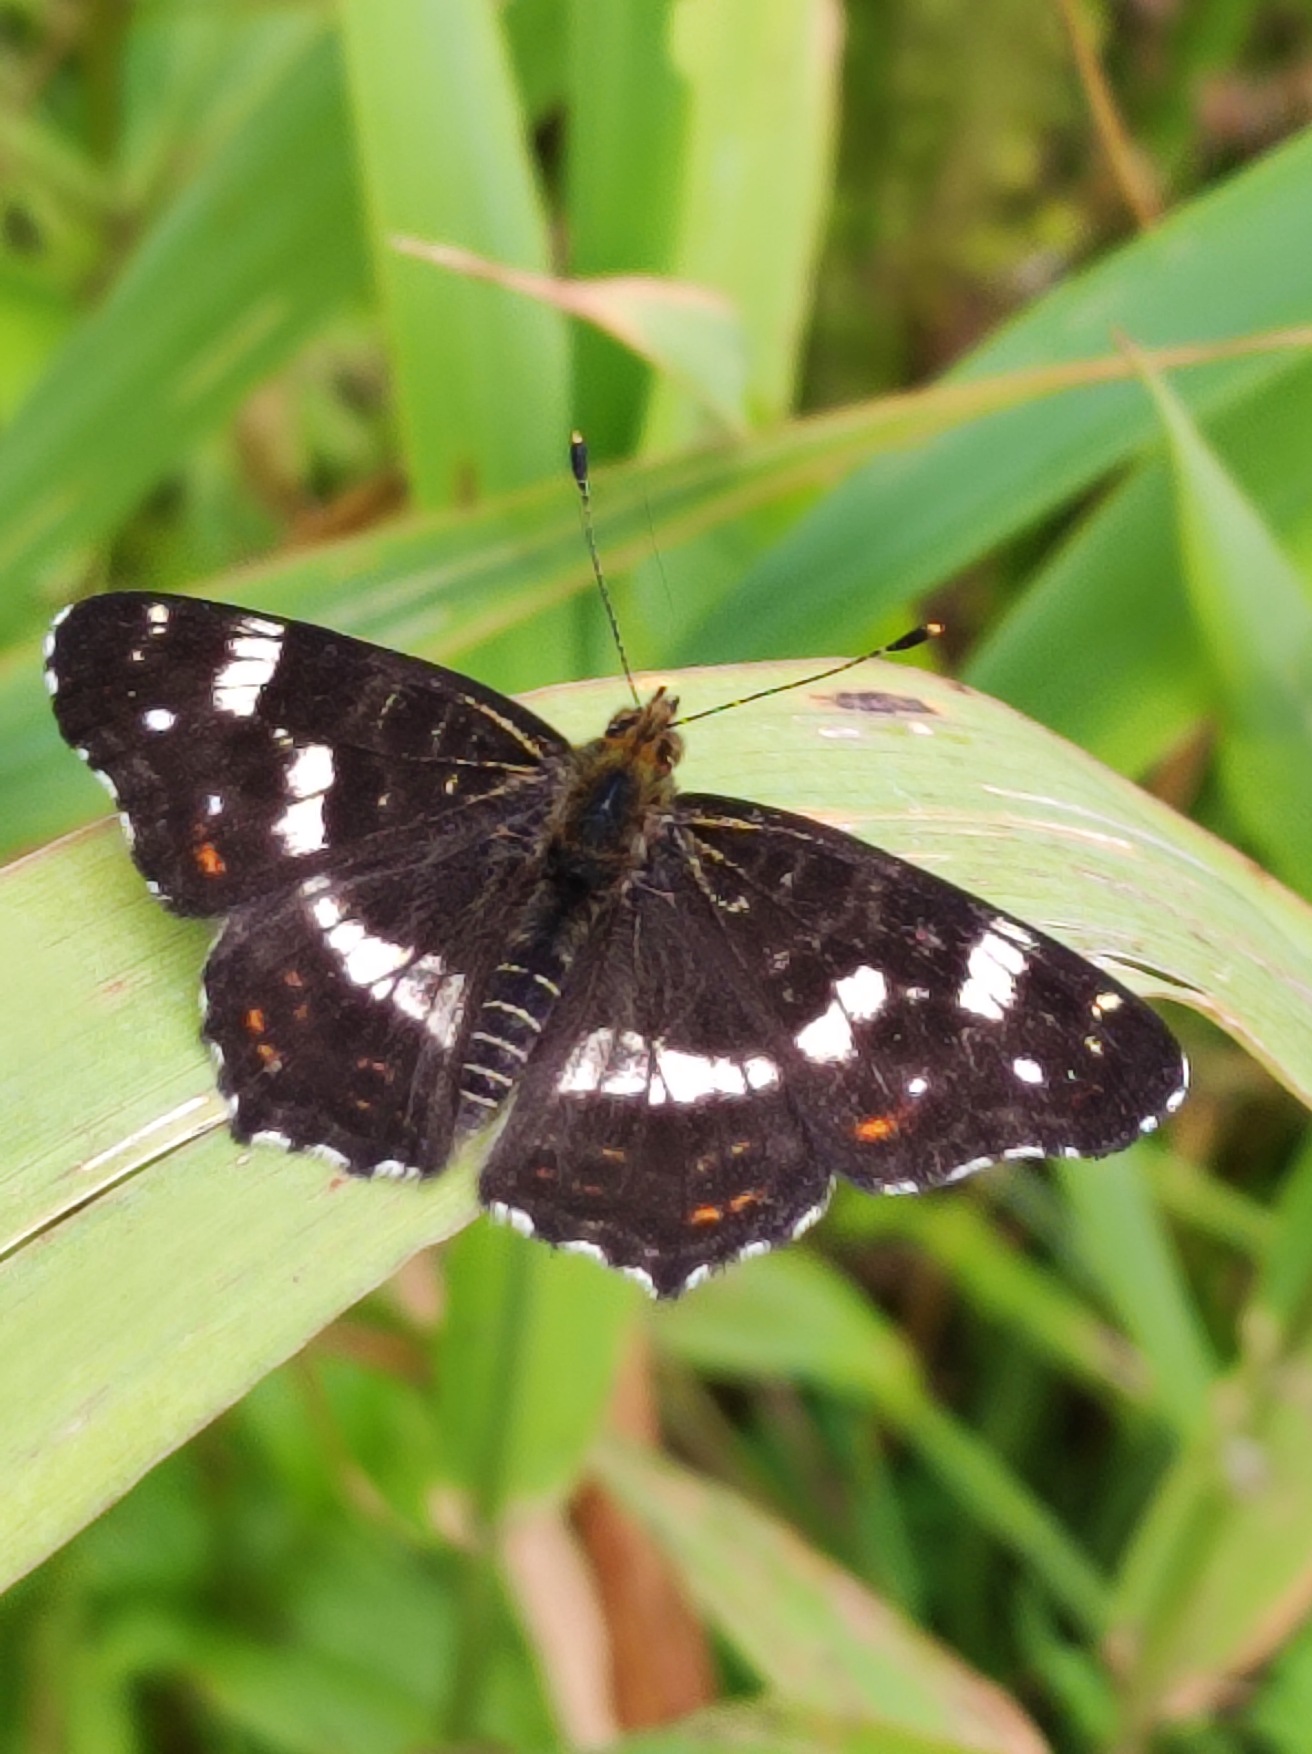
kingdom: Animalia
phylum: Arthropoda
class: Insecta
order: Lepidoptera
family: Nymphalidae
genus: Araschnia
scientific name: Araschnia levana
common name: Nældesommerfugl
